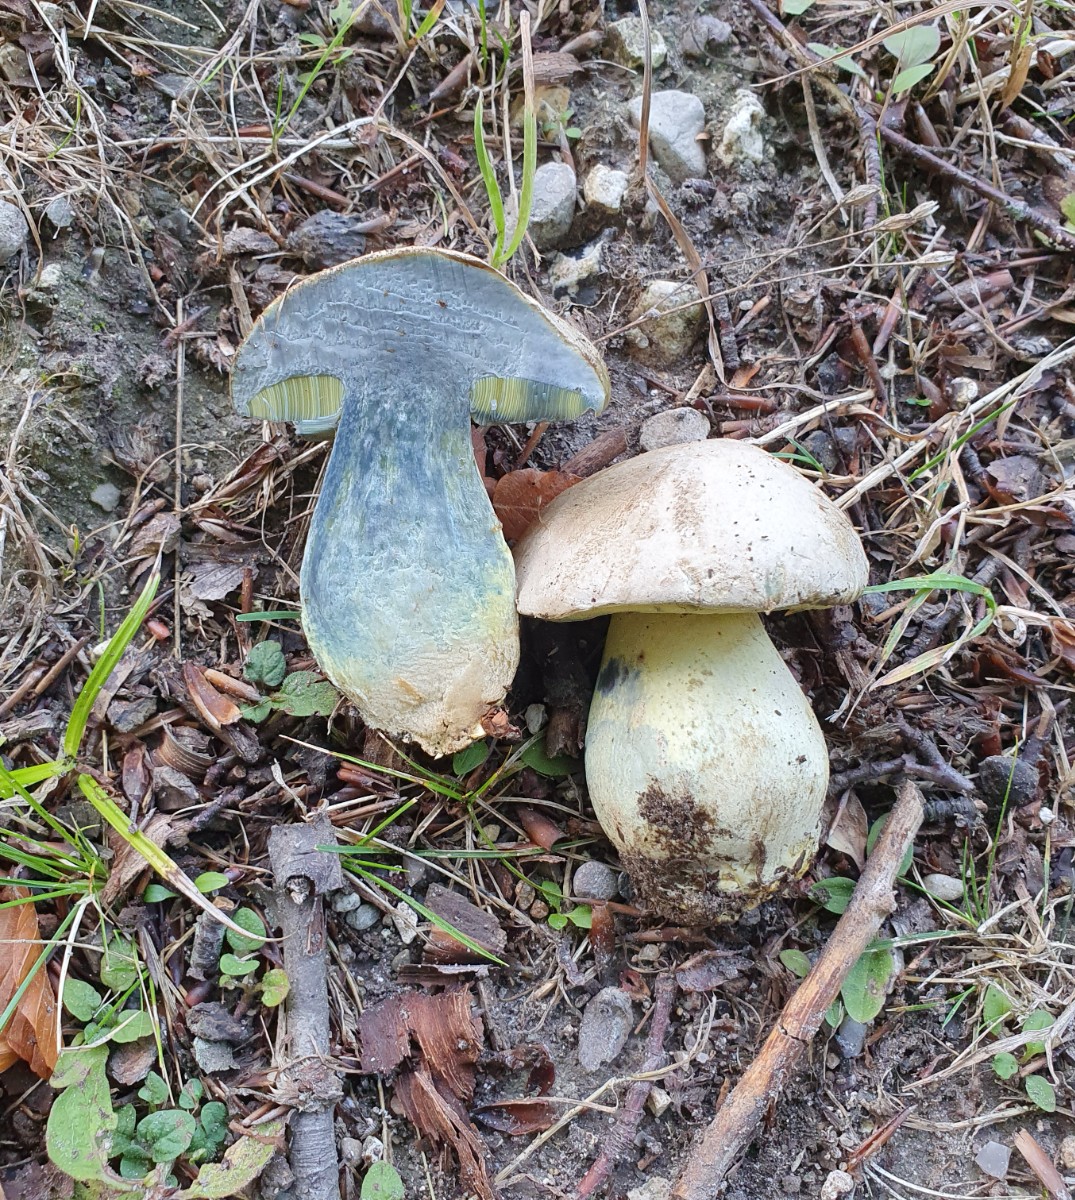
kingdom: Fungi
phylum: Basidiomycota
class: Agaricomycetes
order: Boletales
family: Boletaceae
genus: Caloboletus
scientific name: Caloboletus radicans
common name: rod-rørhat
